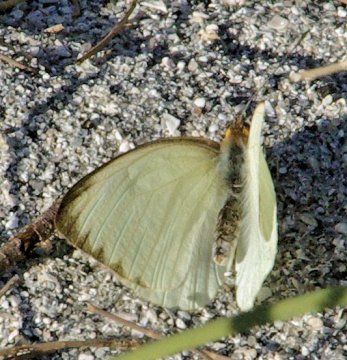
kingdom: Animalia
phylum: Arthropoda
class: Insecta
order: Lepidoptera
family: Pieridae
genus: Ascia
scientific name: Ascia monuste
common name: Great Southern White
